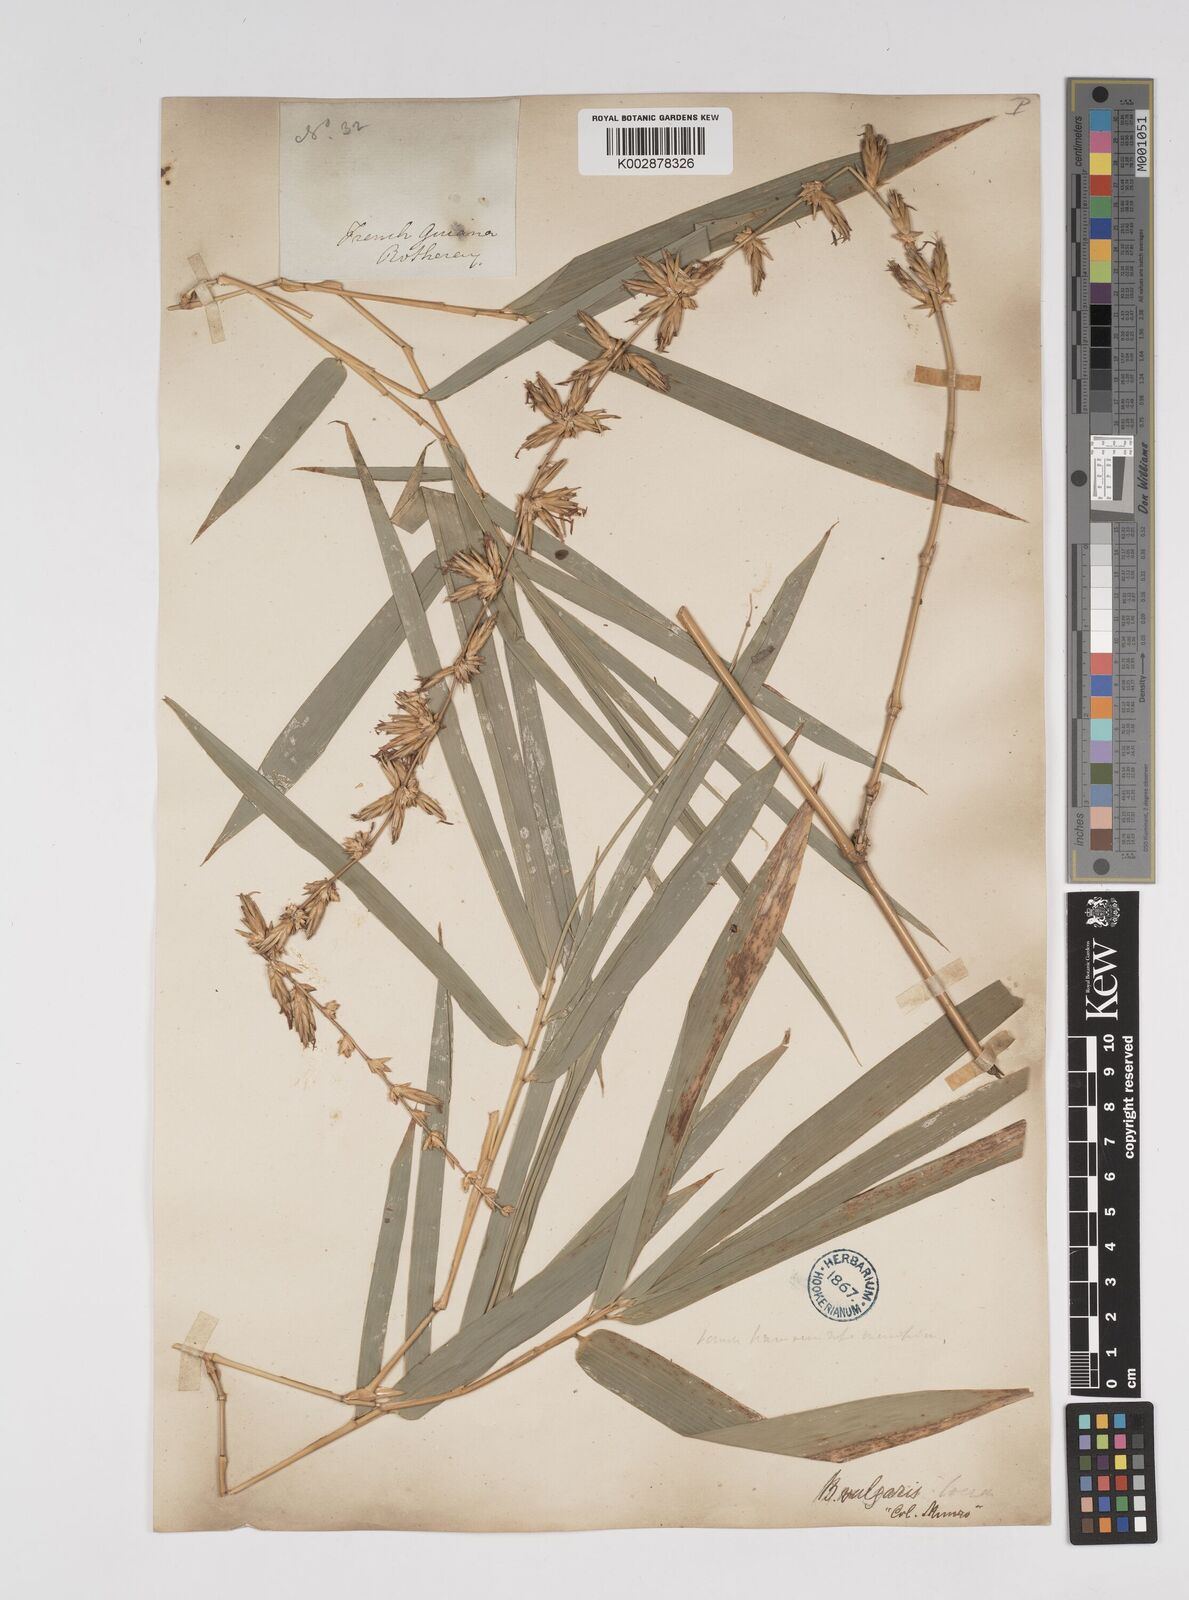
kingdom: Plantae
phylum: Tracheophyta
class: Liliopsida
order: Poales
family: Poaceae
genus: Bambusa
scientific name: Bambusa vulgaris
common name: Common bamboo
